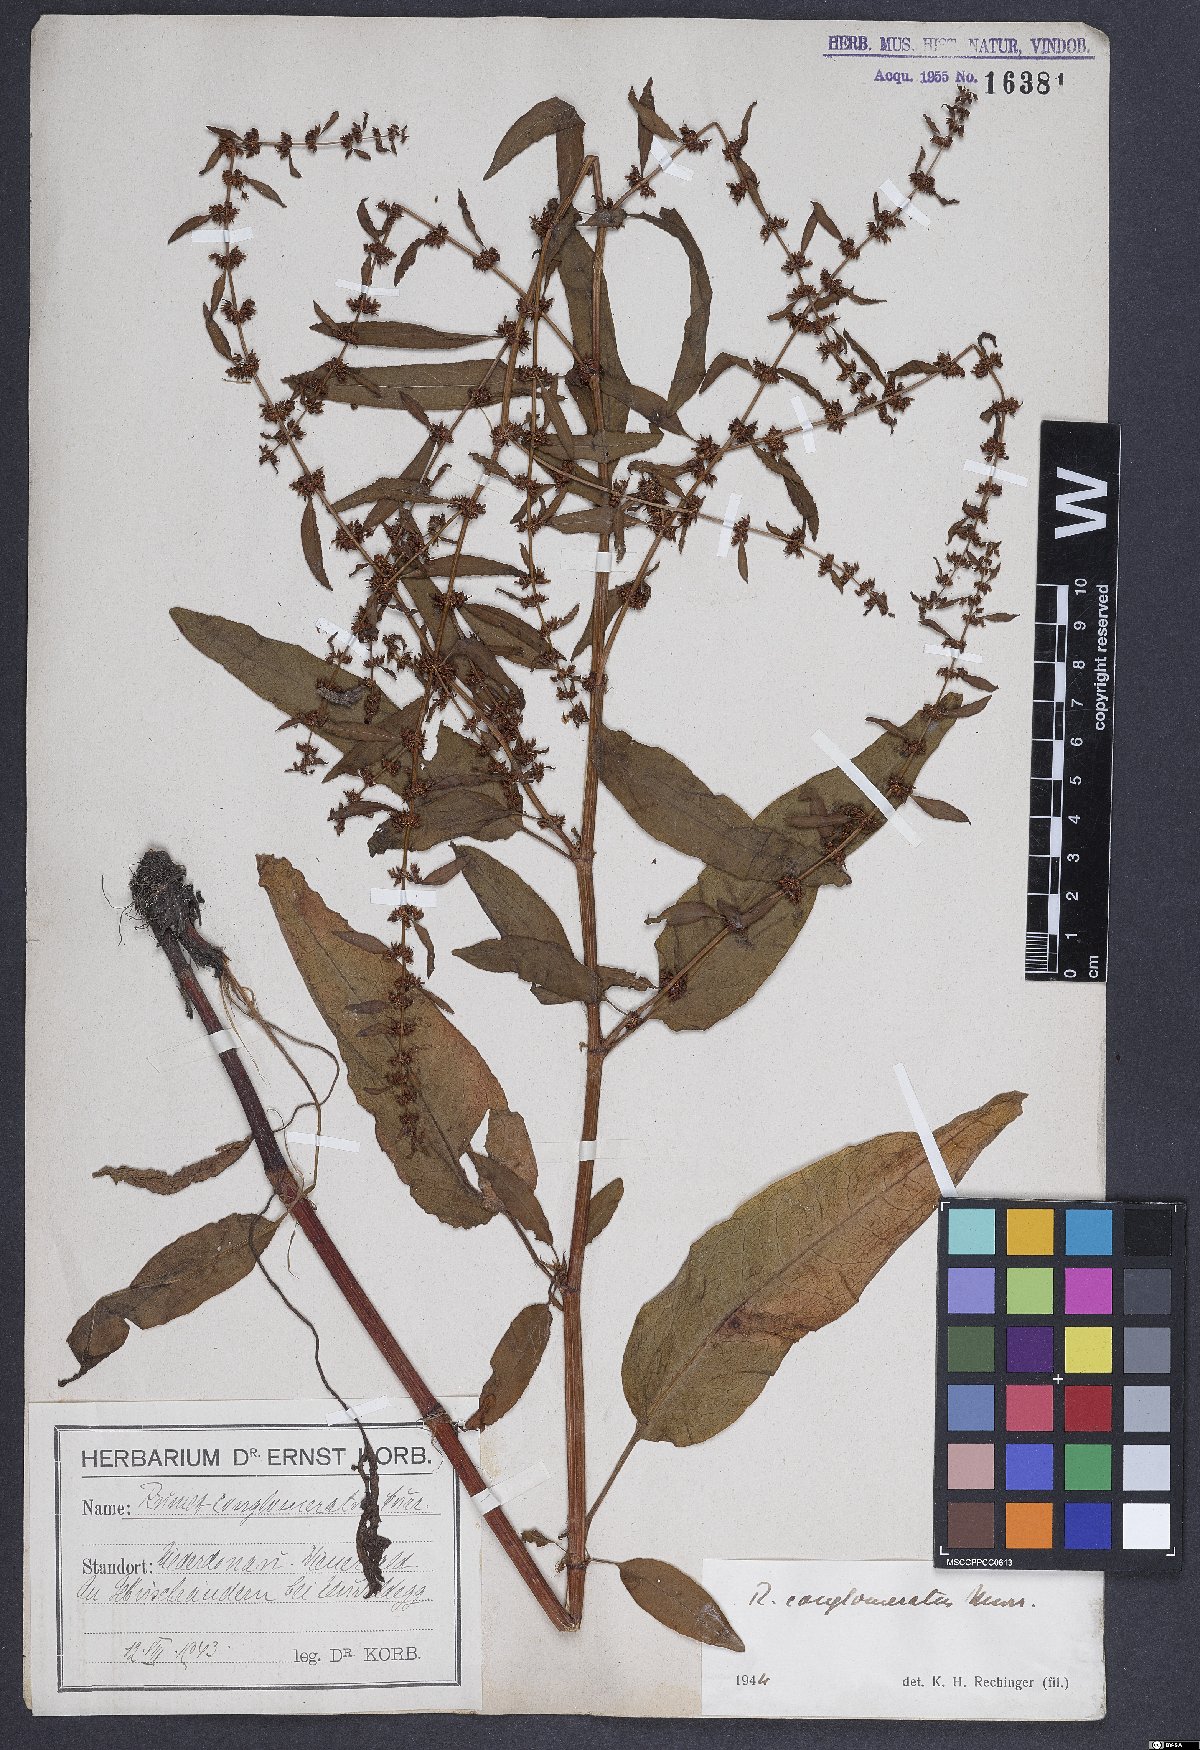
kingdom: Plantae
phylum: Tracheophyta
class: Magnoliopsida
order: Caryophyllales
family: Polygonaceae
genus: Rumex
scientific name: Rumex conglomeratus
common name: Clustered dock
